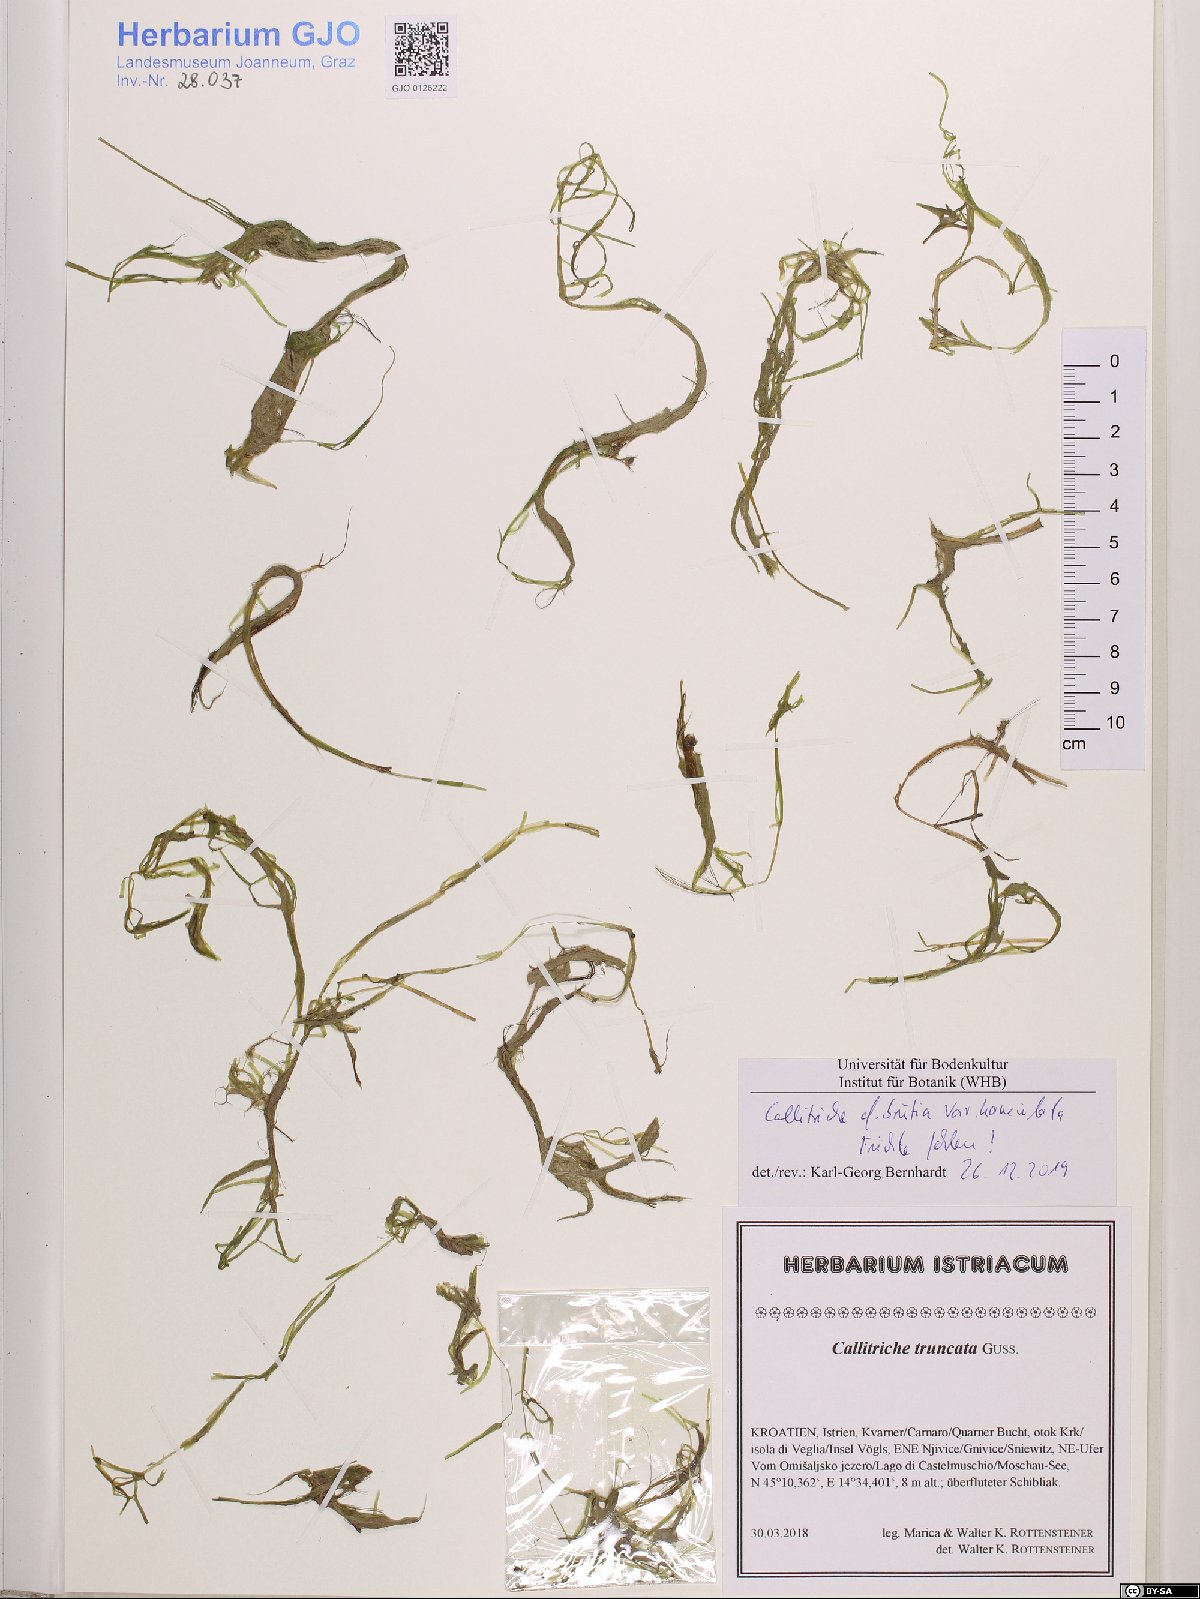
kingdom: Plantae
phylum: Tracheophyta
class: Magnoliopsida
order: Lamiales
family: Plantaginaceae
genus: Callitriche
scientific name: Callitriche hamulata
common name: Intermediate water-starwort
